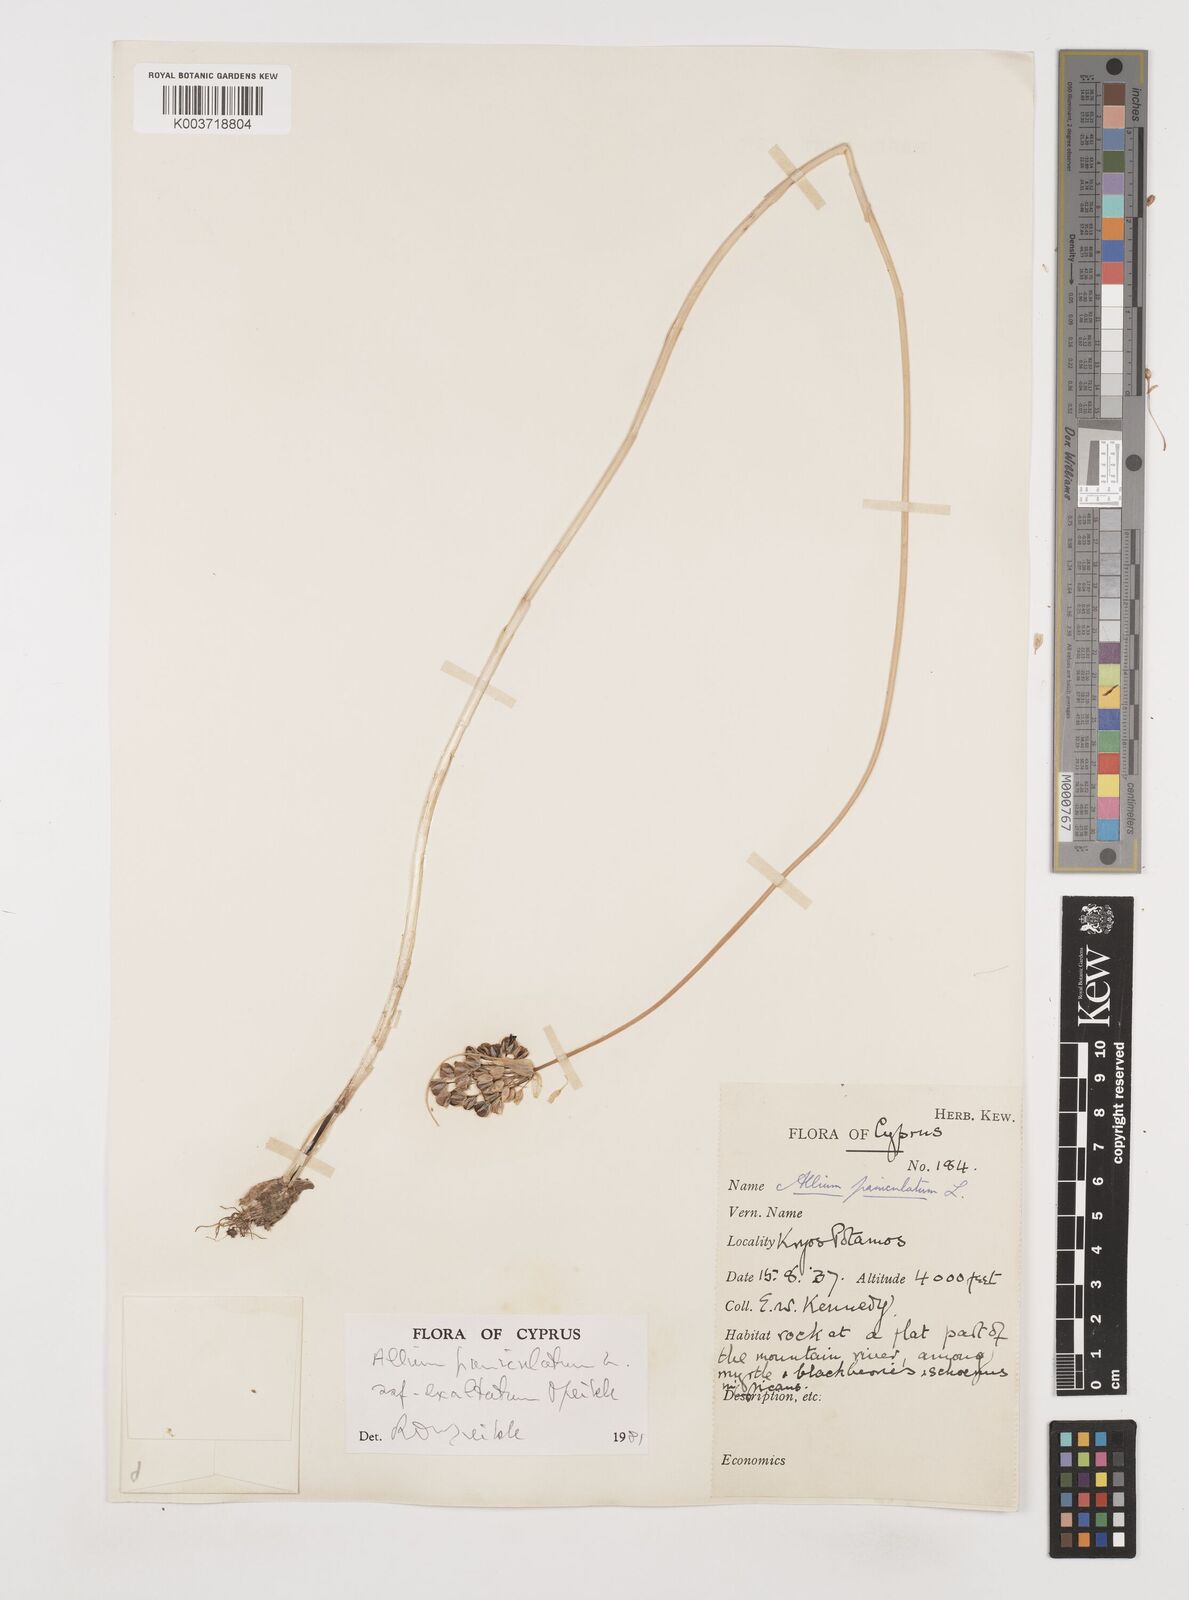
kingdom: Plantae
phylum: Tracheophyta
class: Liliopsida
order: Asparagales
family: Amaryllidaceae
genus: Allium
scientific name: Allium paniculatum
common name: Pale garlic
